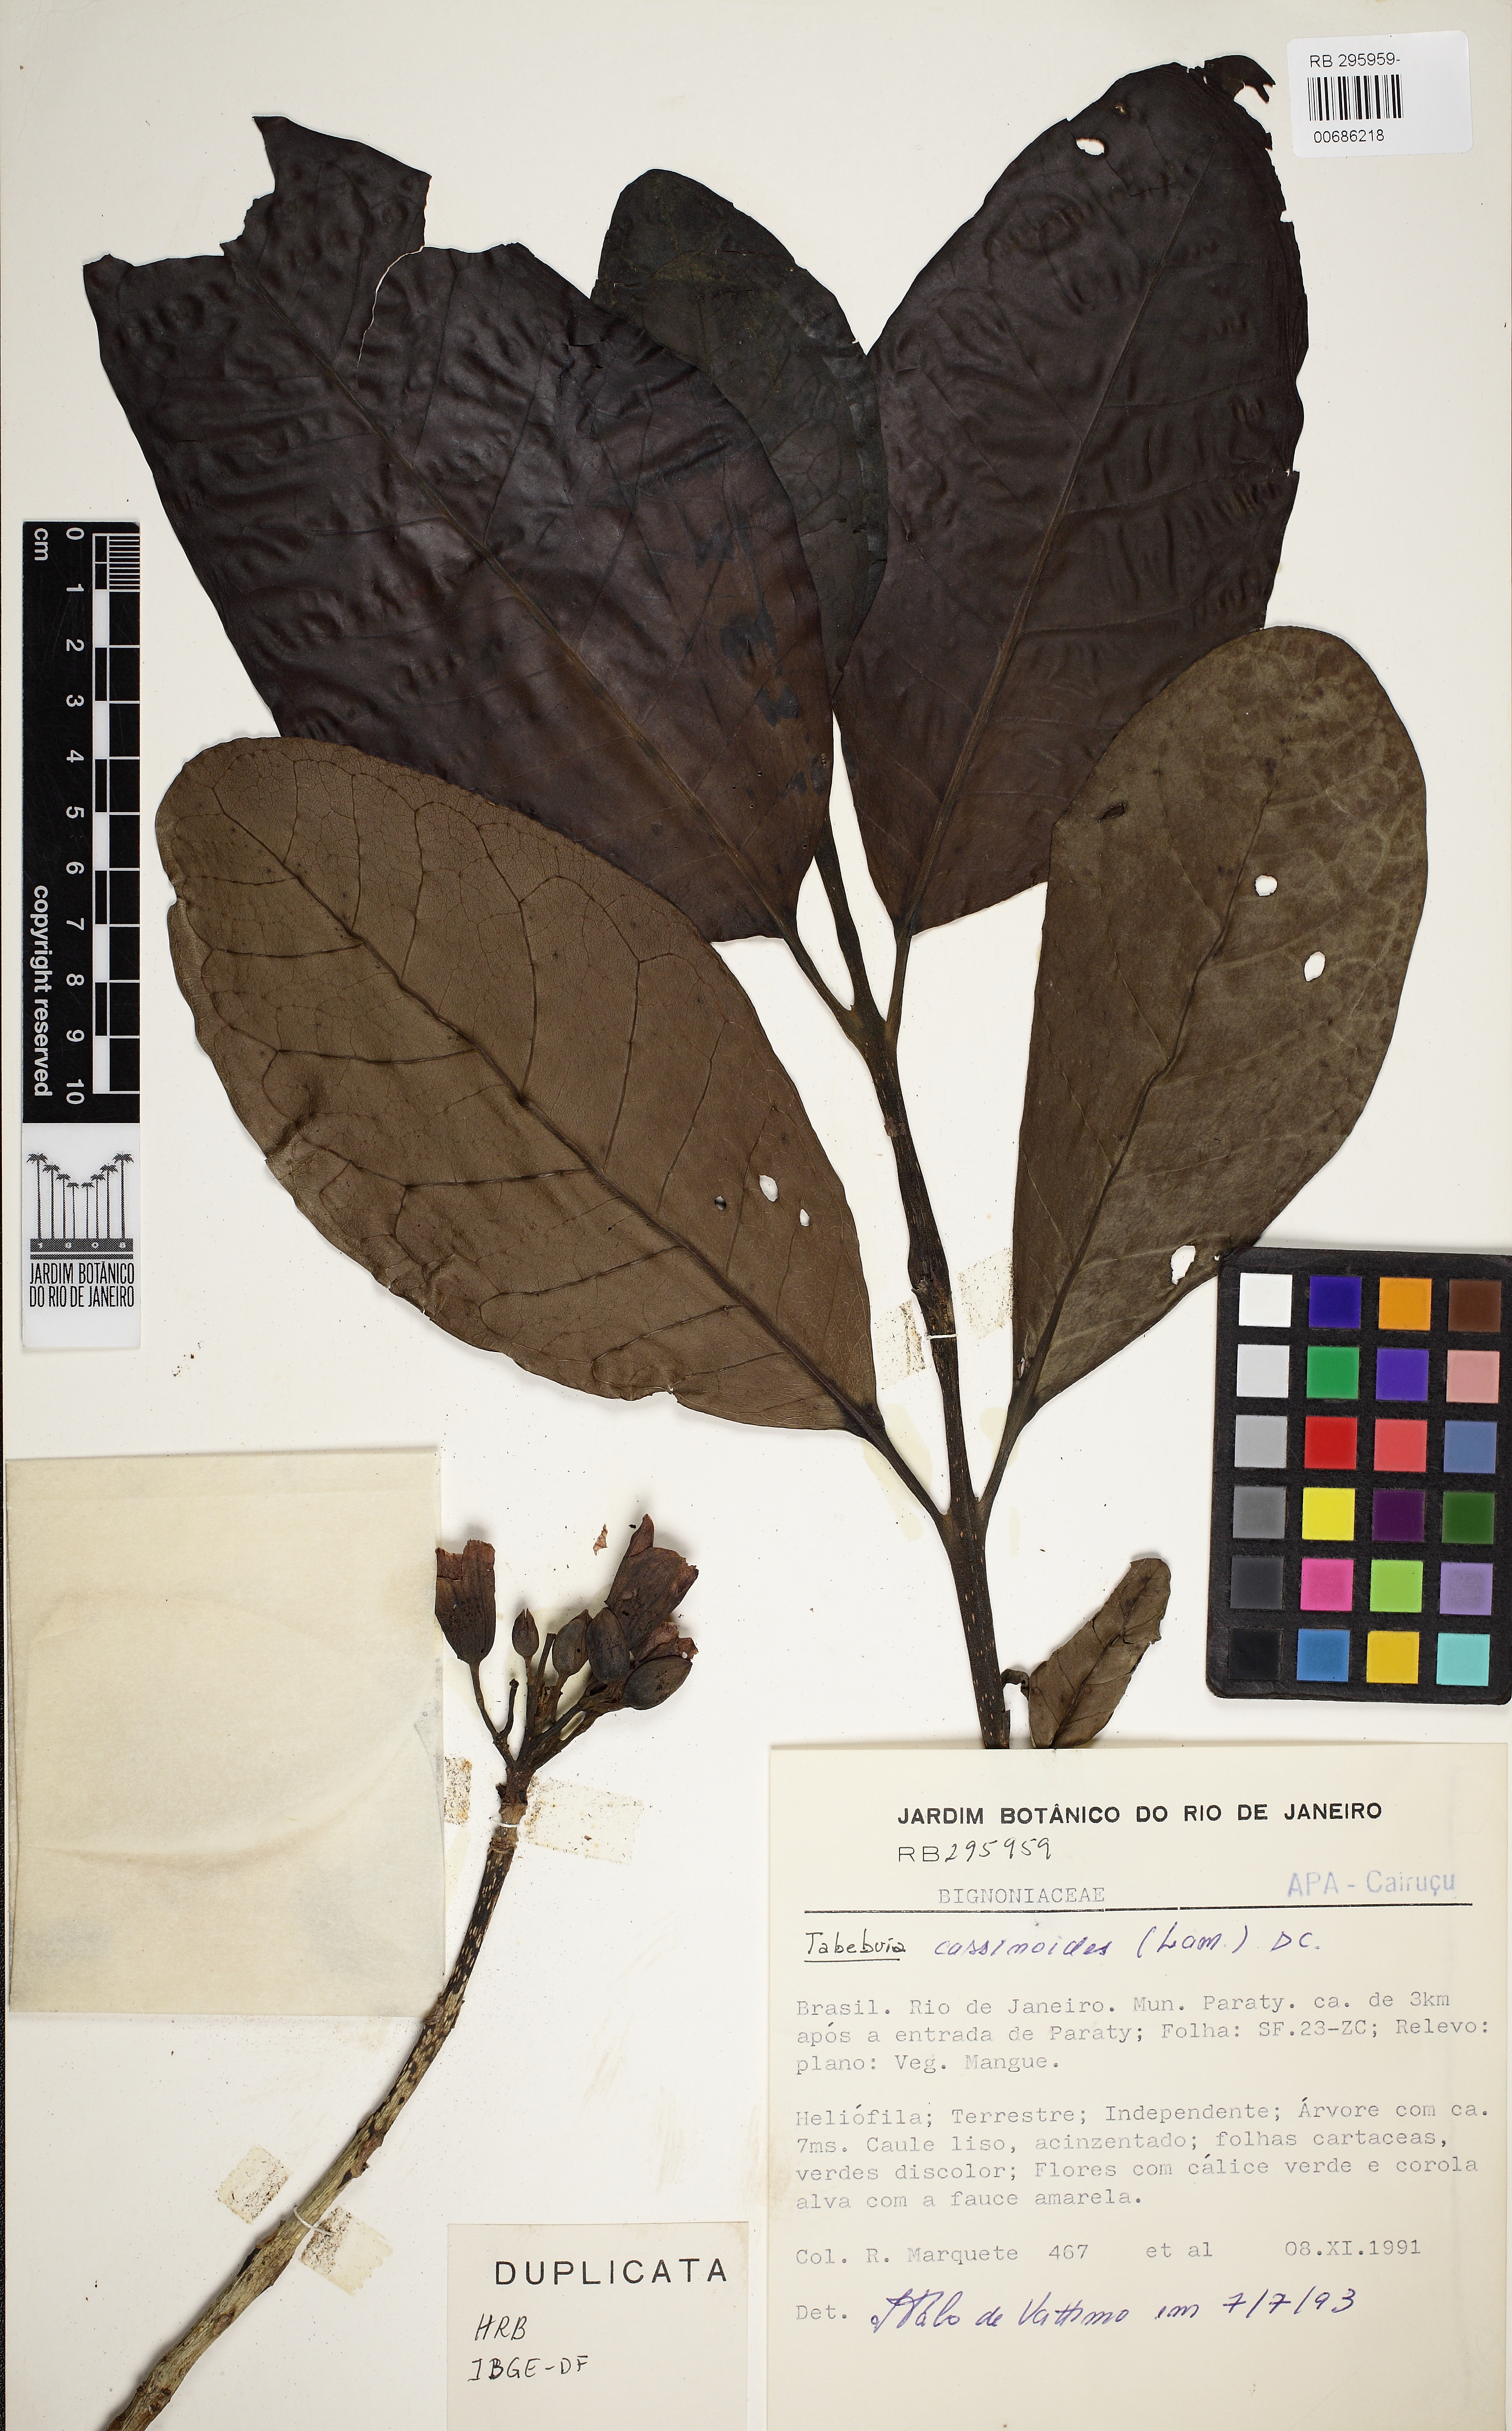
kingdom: Plantae
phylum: Tracheophyta
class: Magnoliopsida
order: Lamiales
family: Bignoniaceae
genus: Tabebuia
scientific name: Tabebuia cassinoides
